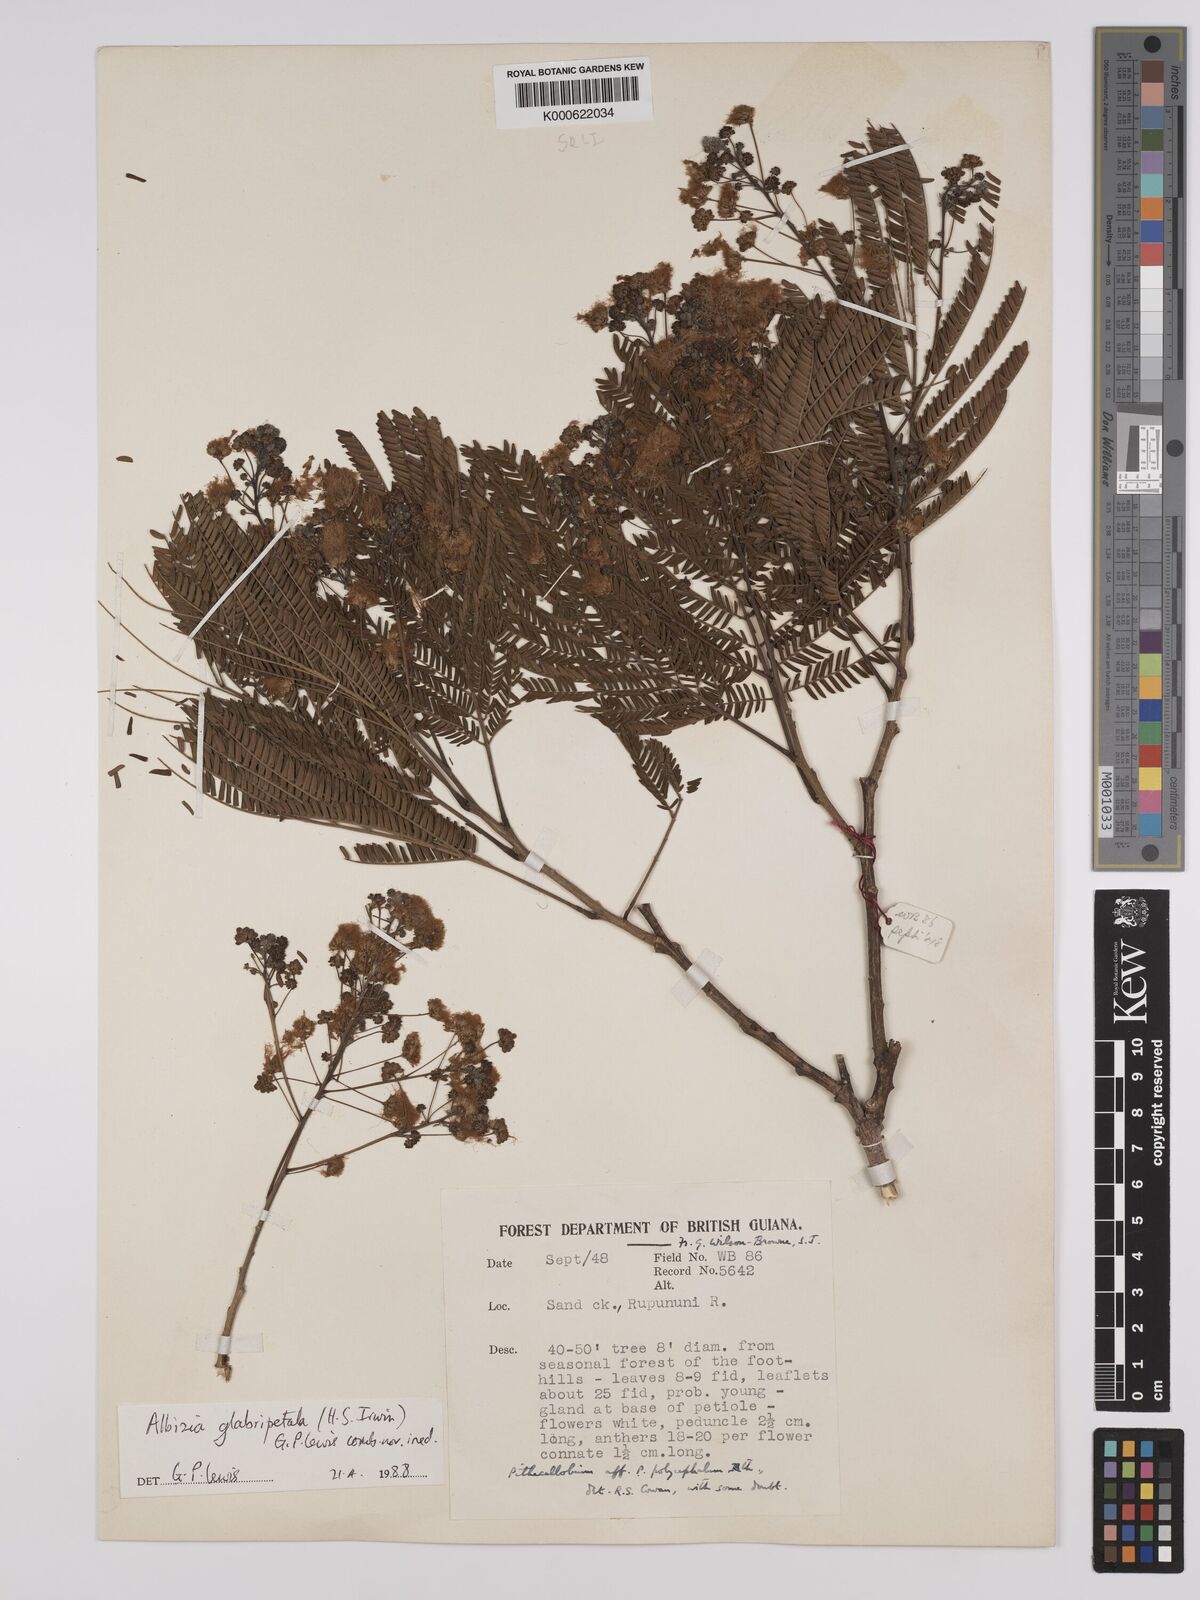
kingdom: Plantae
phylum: Tracheophyta
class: Magnoliopsida
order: Fabales
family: Fabaceae
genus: Albizia
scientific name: Albizia glabripetala
